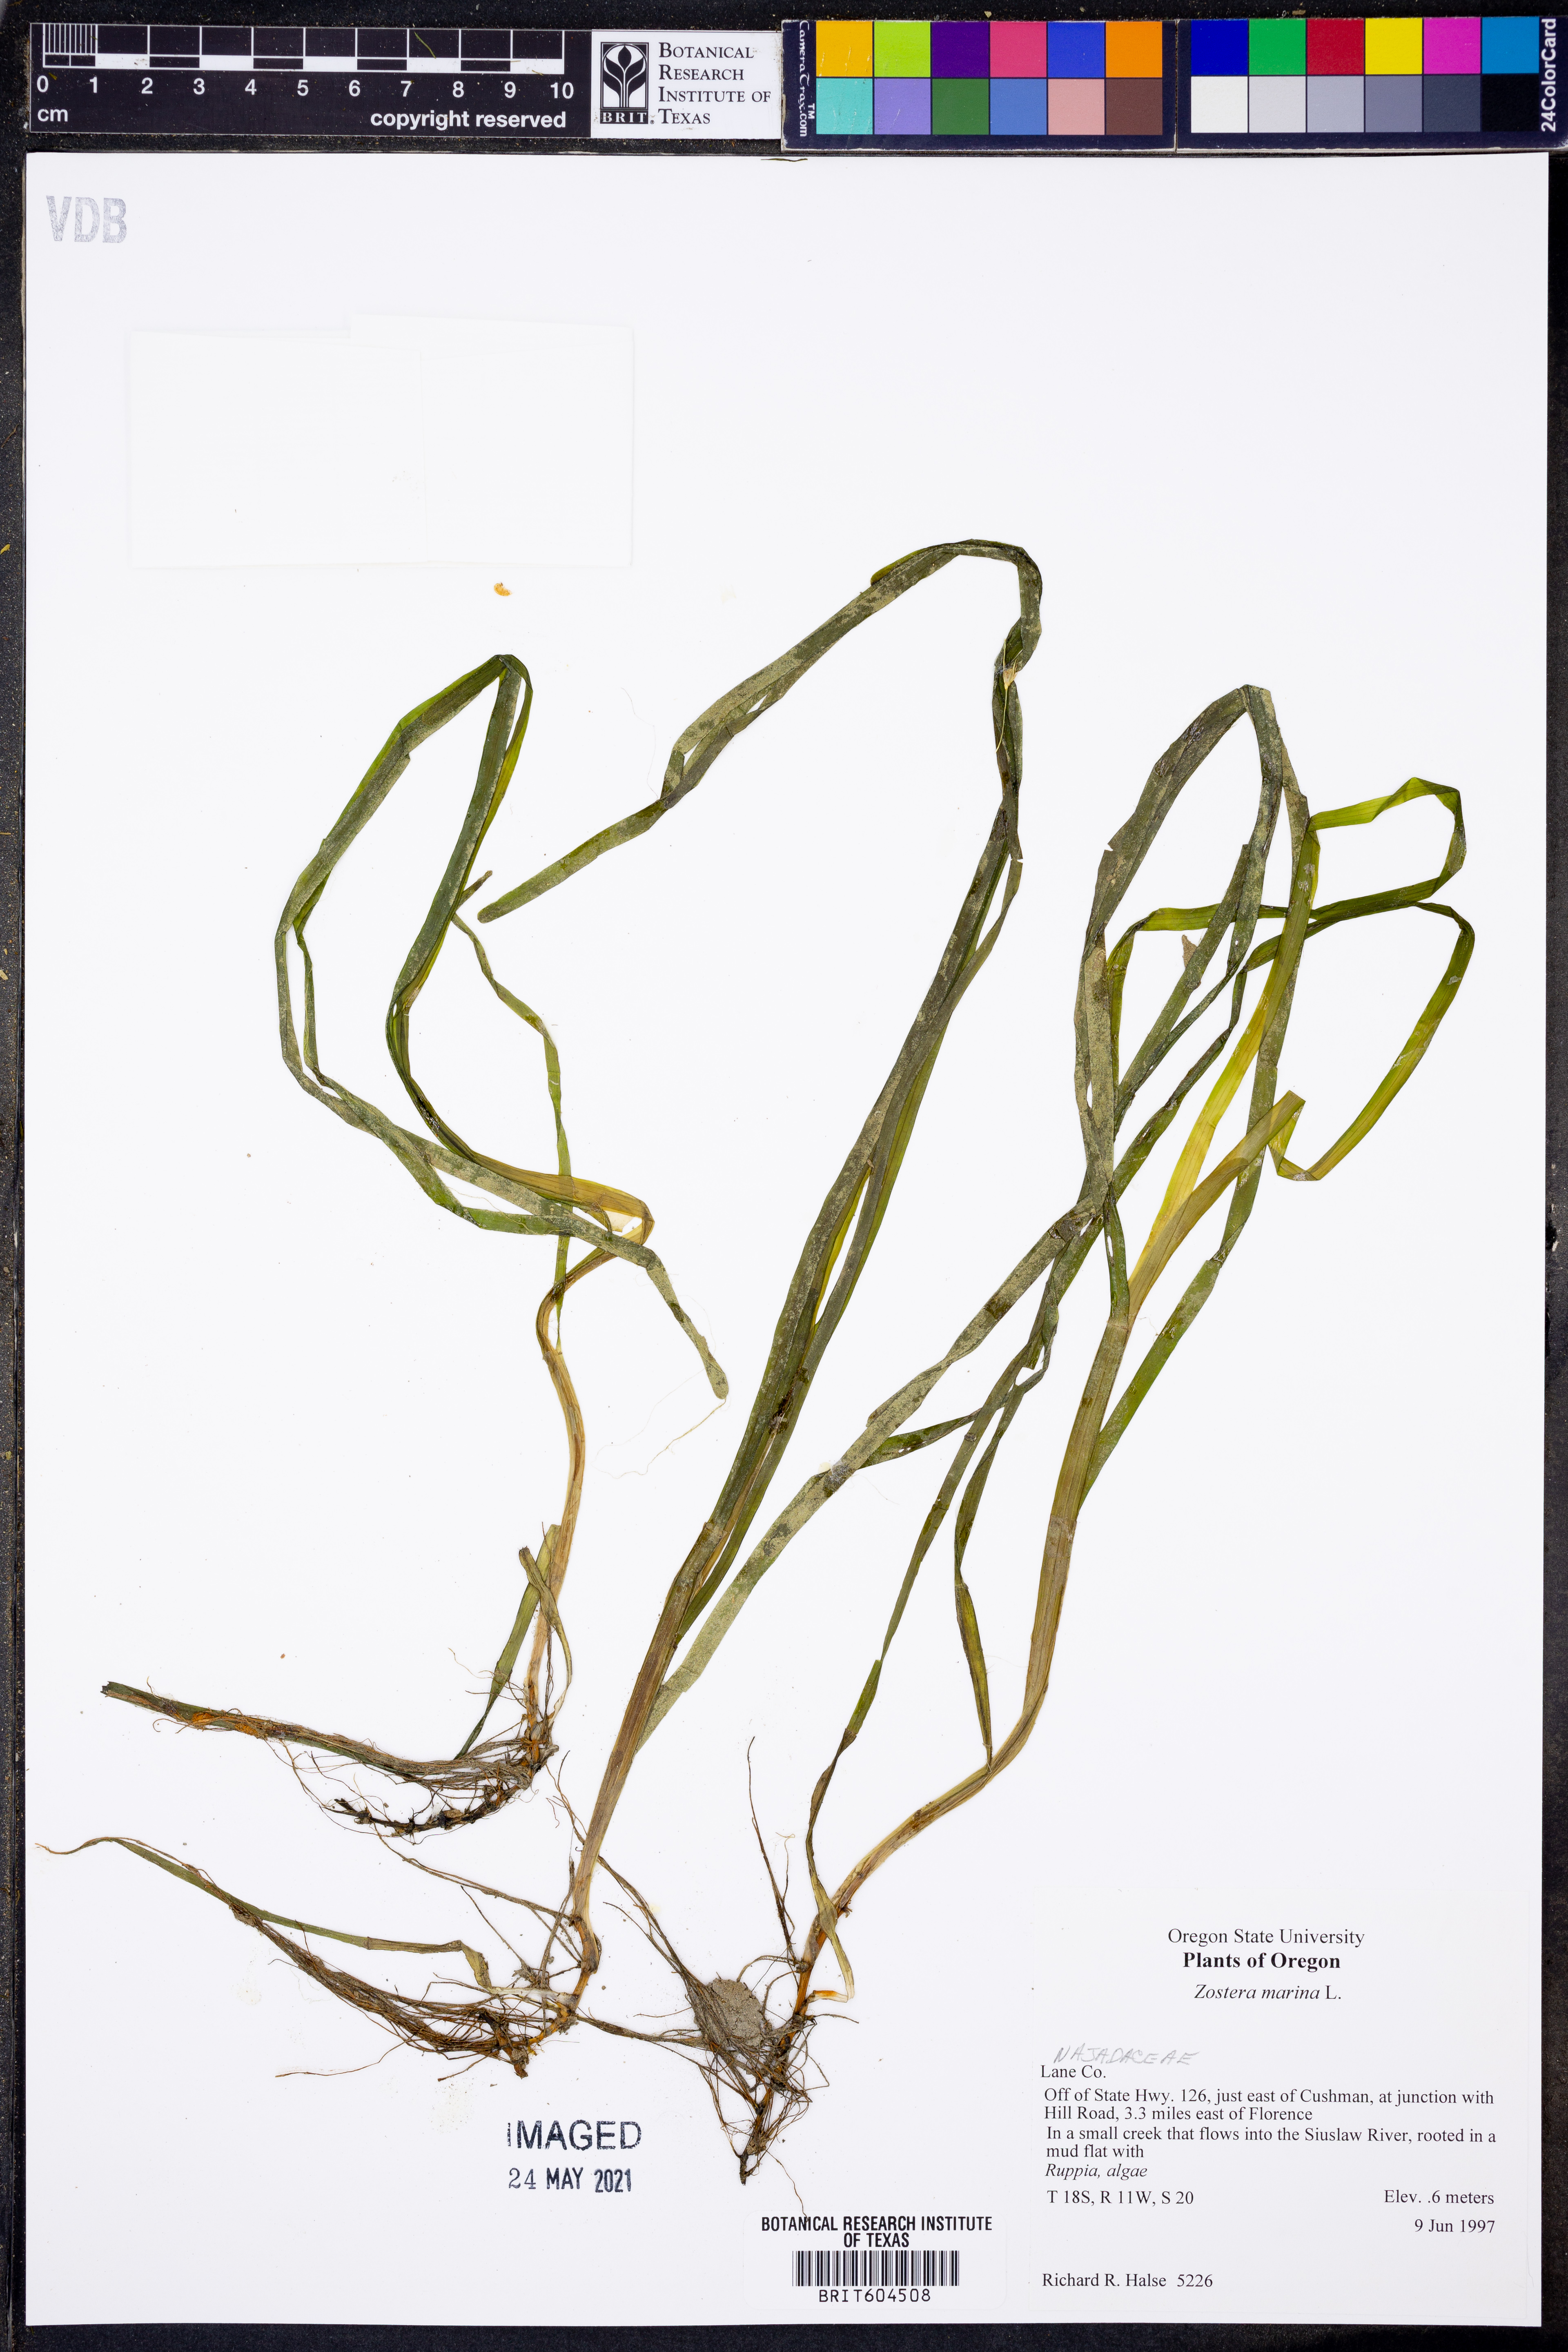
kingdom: Plantae
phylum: Tracheophyta
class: Liliopsida
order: Alismatales
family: Zosteraceae
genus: Zostera
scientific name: Zostera marina
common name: Eelgrass
